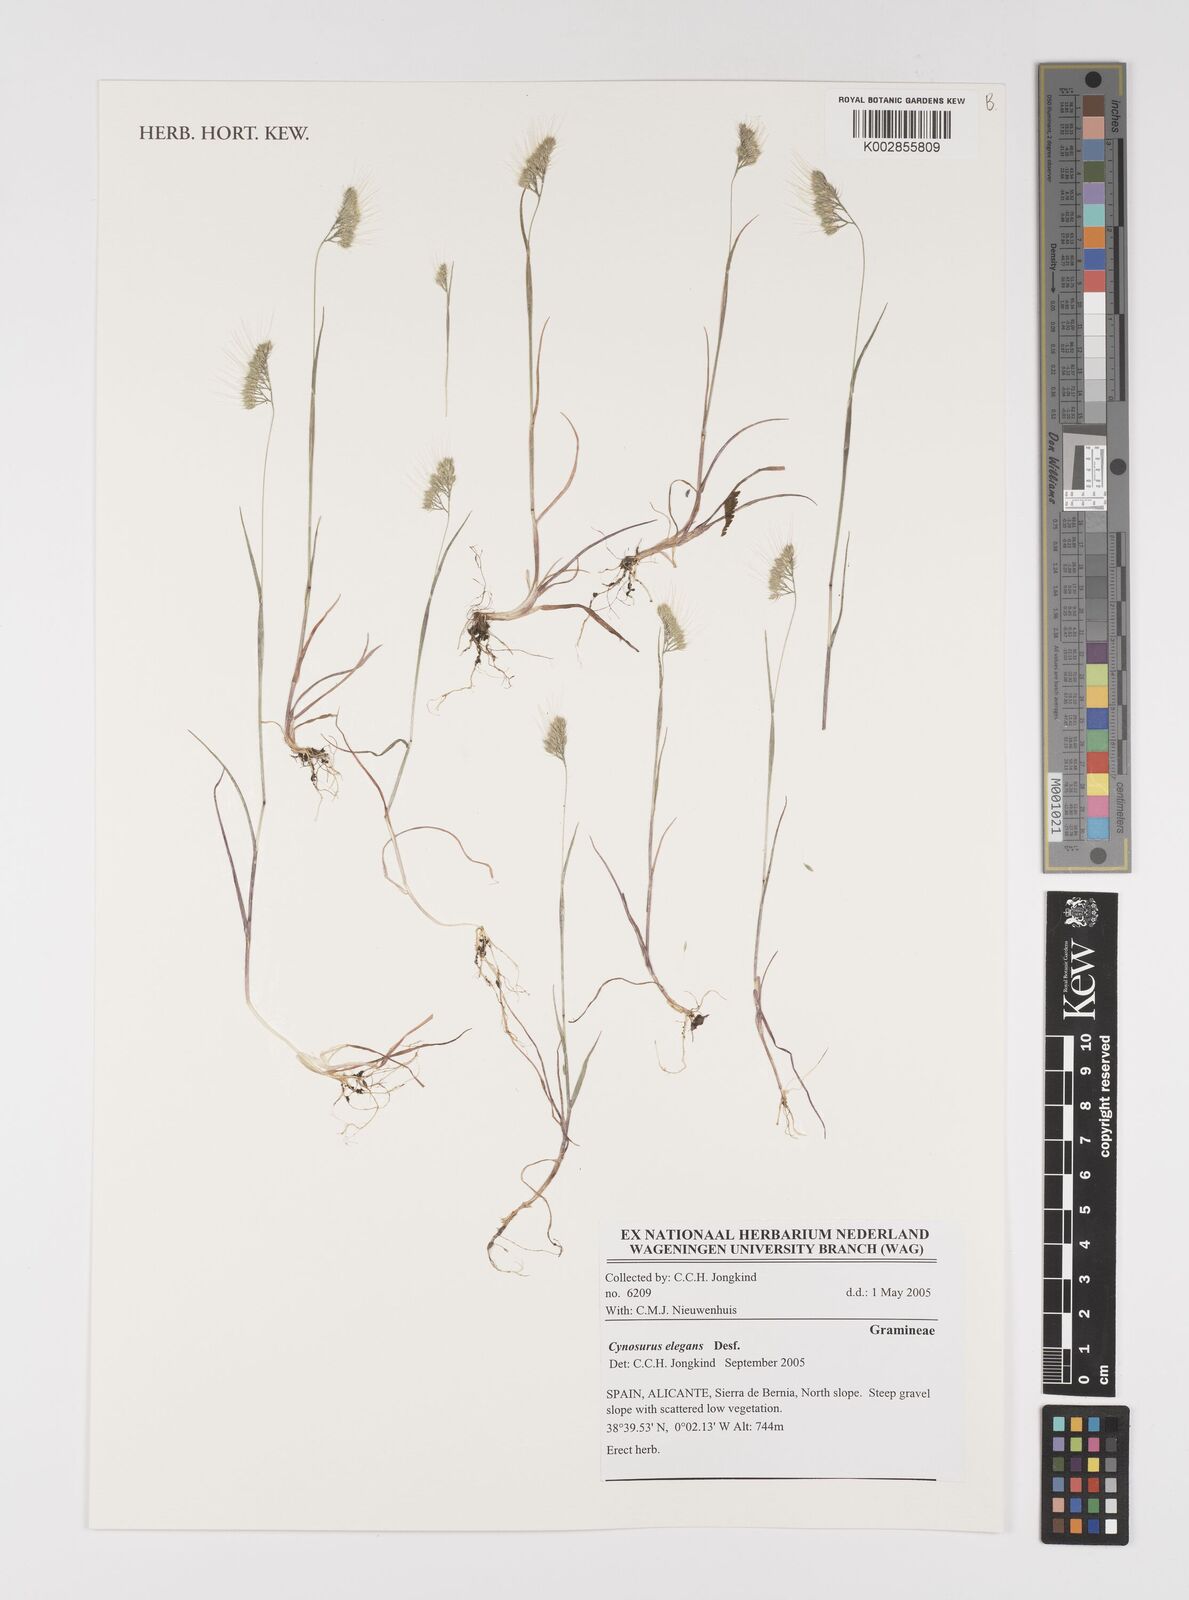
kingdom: Plantae
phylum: Tracheophyta
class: Liliopsida
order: Poales
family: Poaceae
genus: Cynosurus
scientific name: Cynosurus elegans
